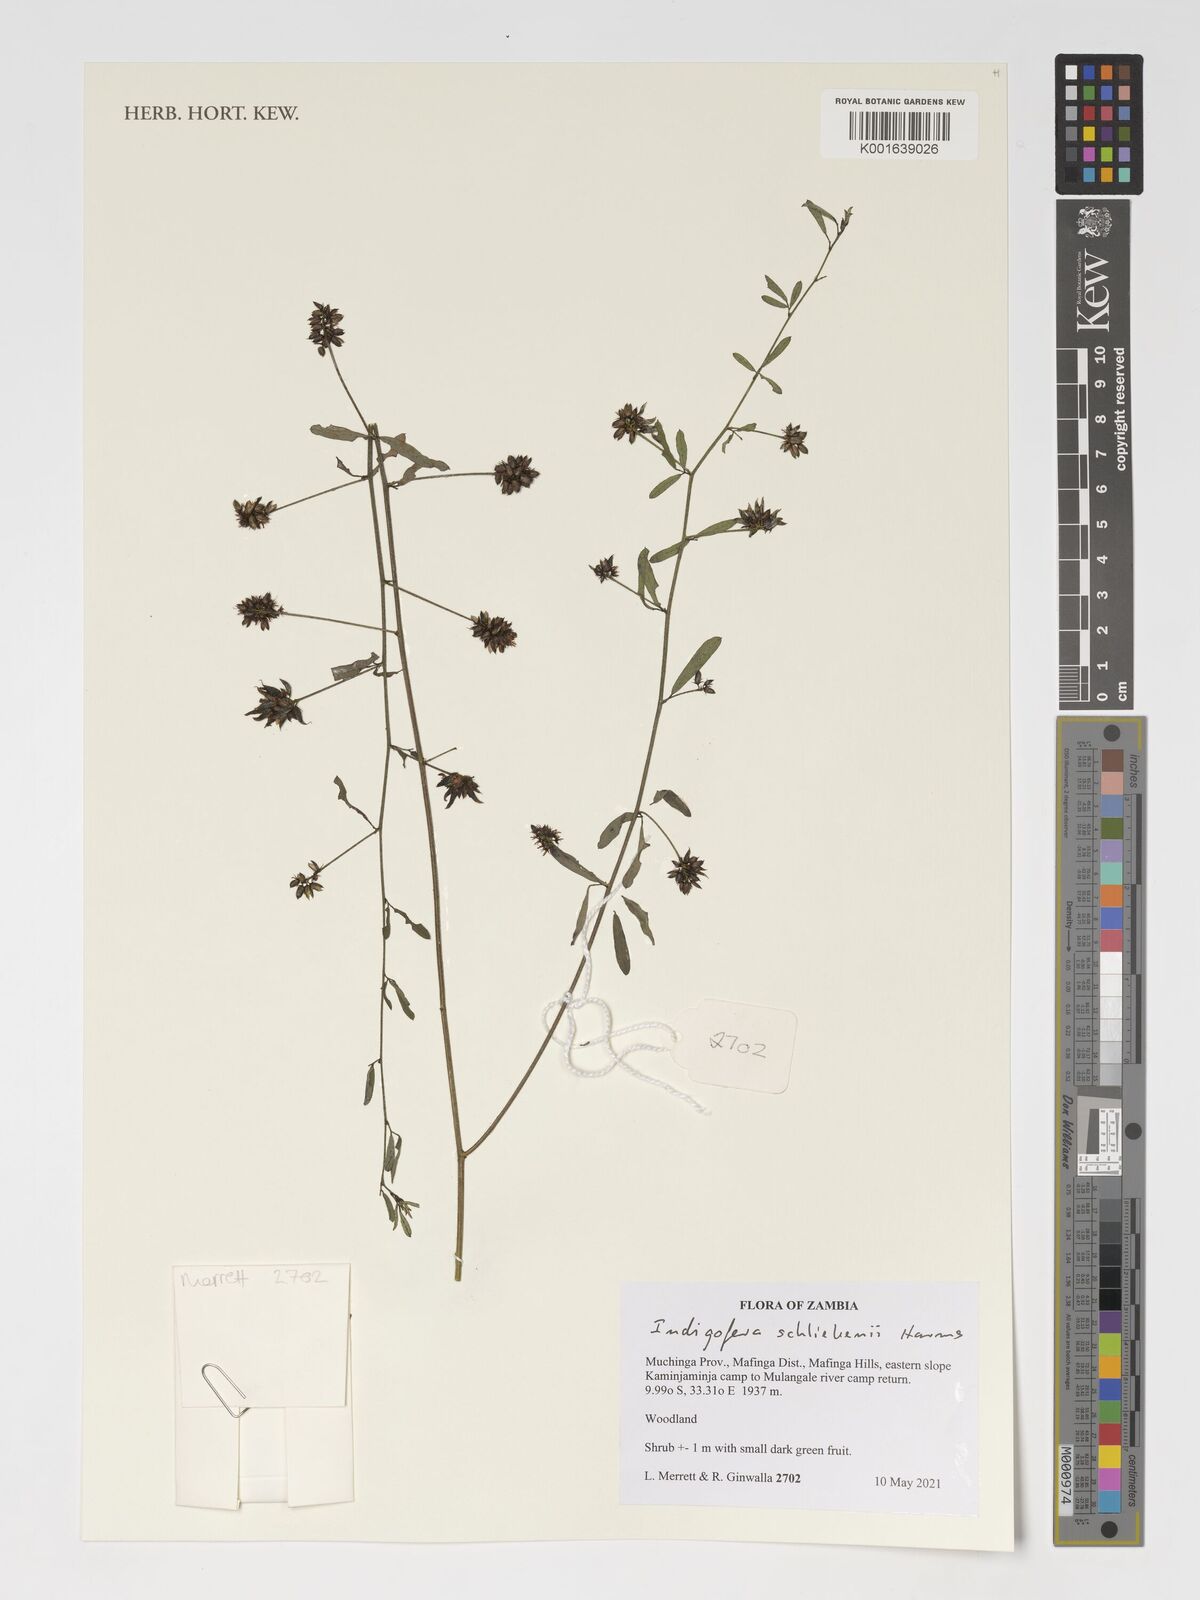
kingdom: Plantae
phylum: Tracheophyta
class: Magnoliopsida
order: Fabales
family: Fabaceae
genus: Indigofera
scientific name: Indigofera schliebenii
